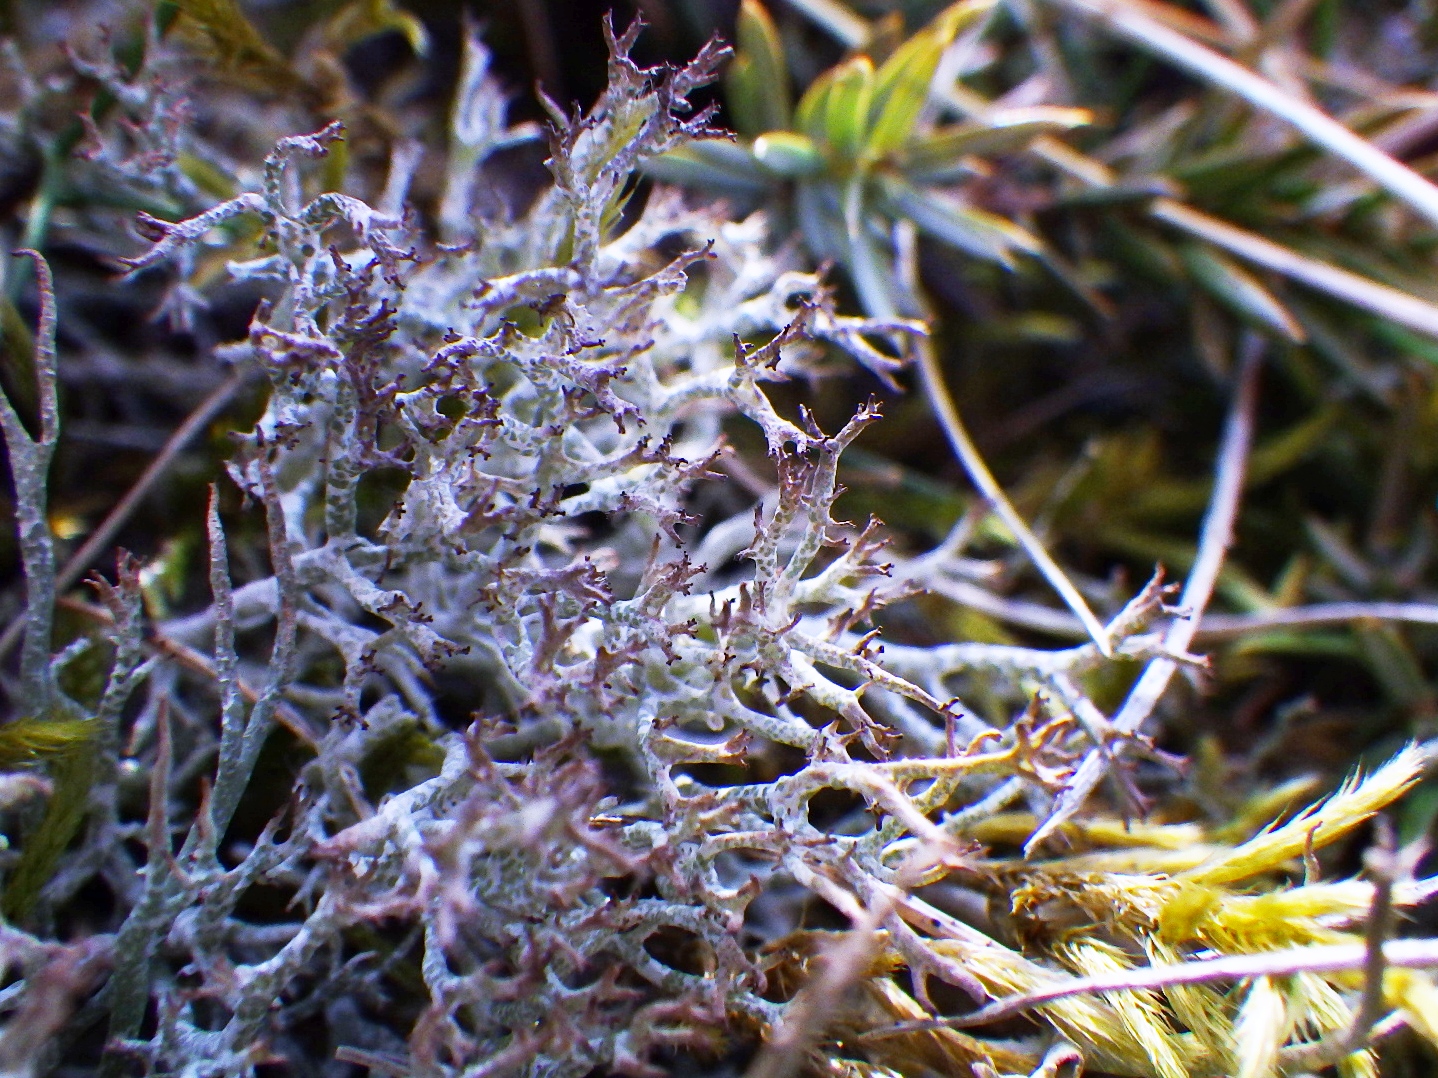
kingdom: Fungi
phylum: Ascomycota
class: Lecanoromycetes
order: Lecanorales
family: Cladoniaceae
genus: Cladonia
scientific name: Cladonia rangiformis
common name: spættet bægerlav
